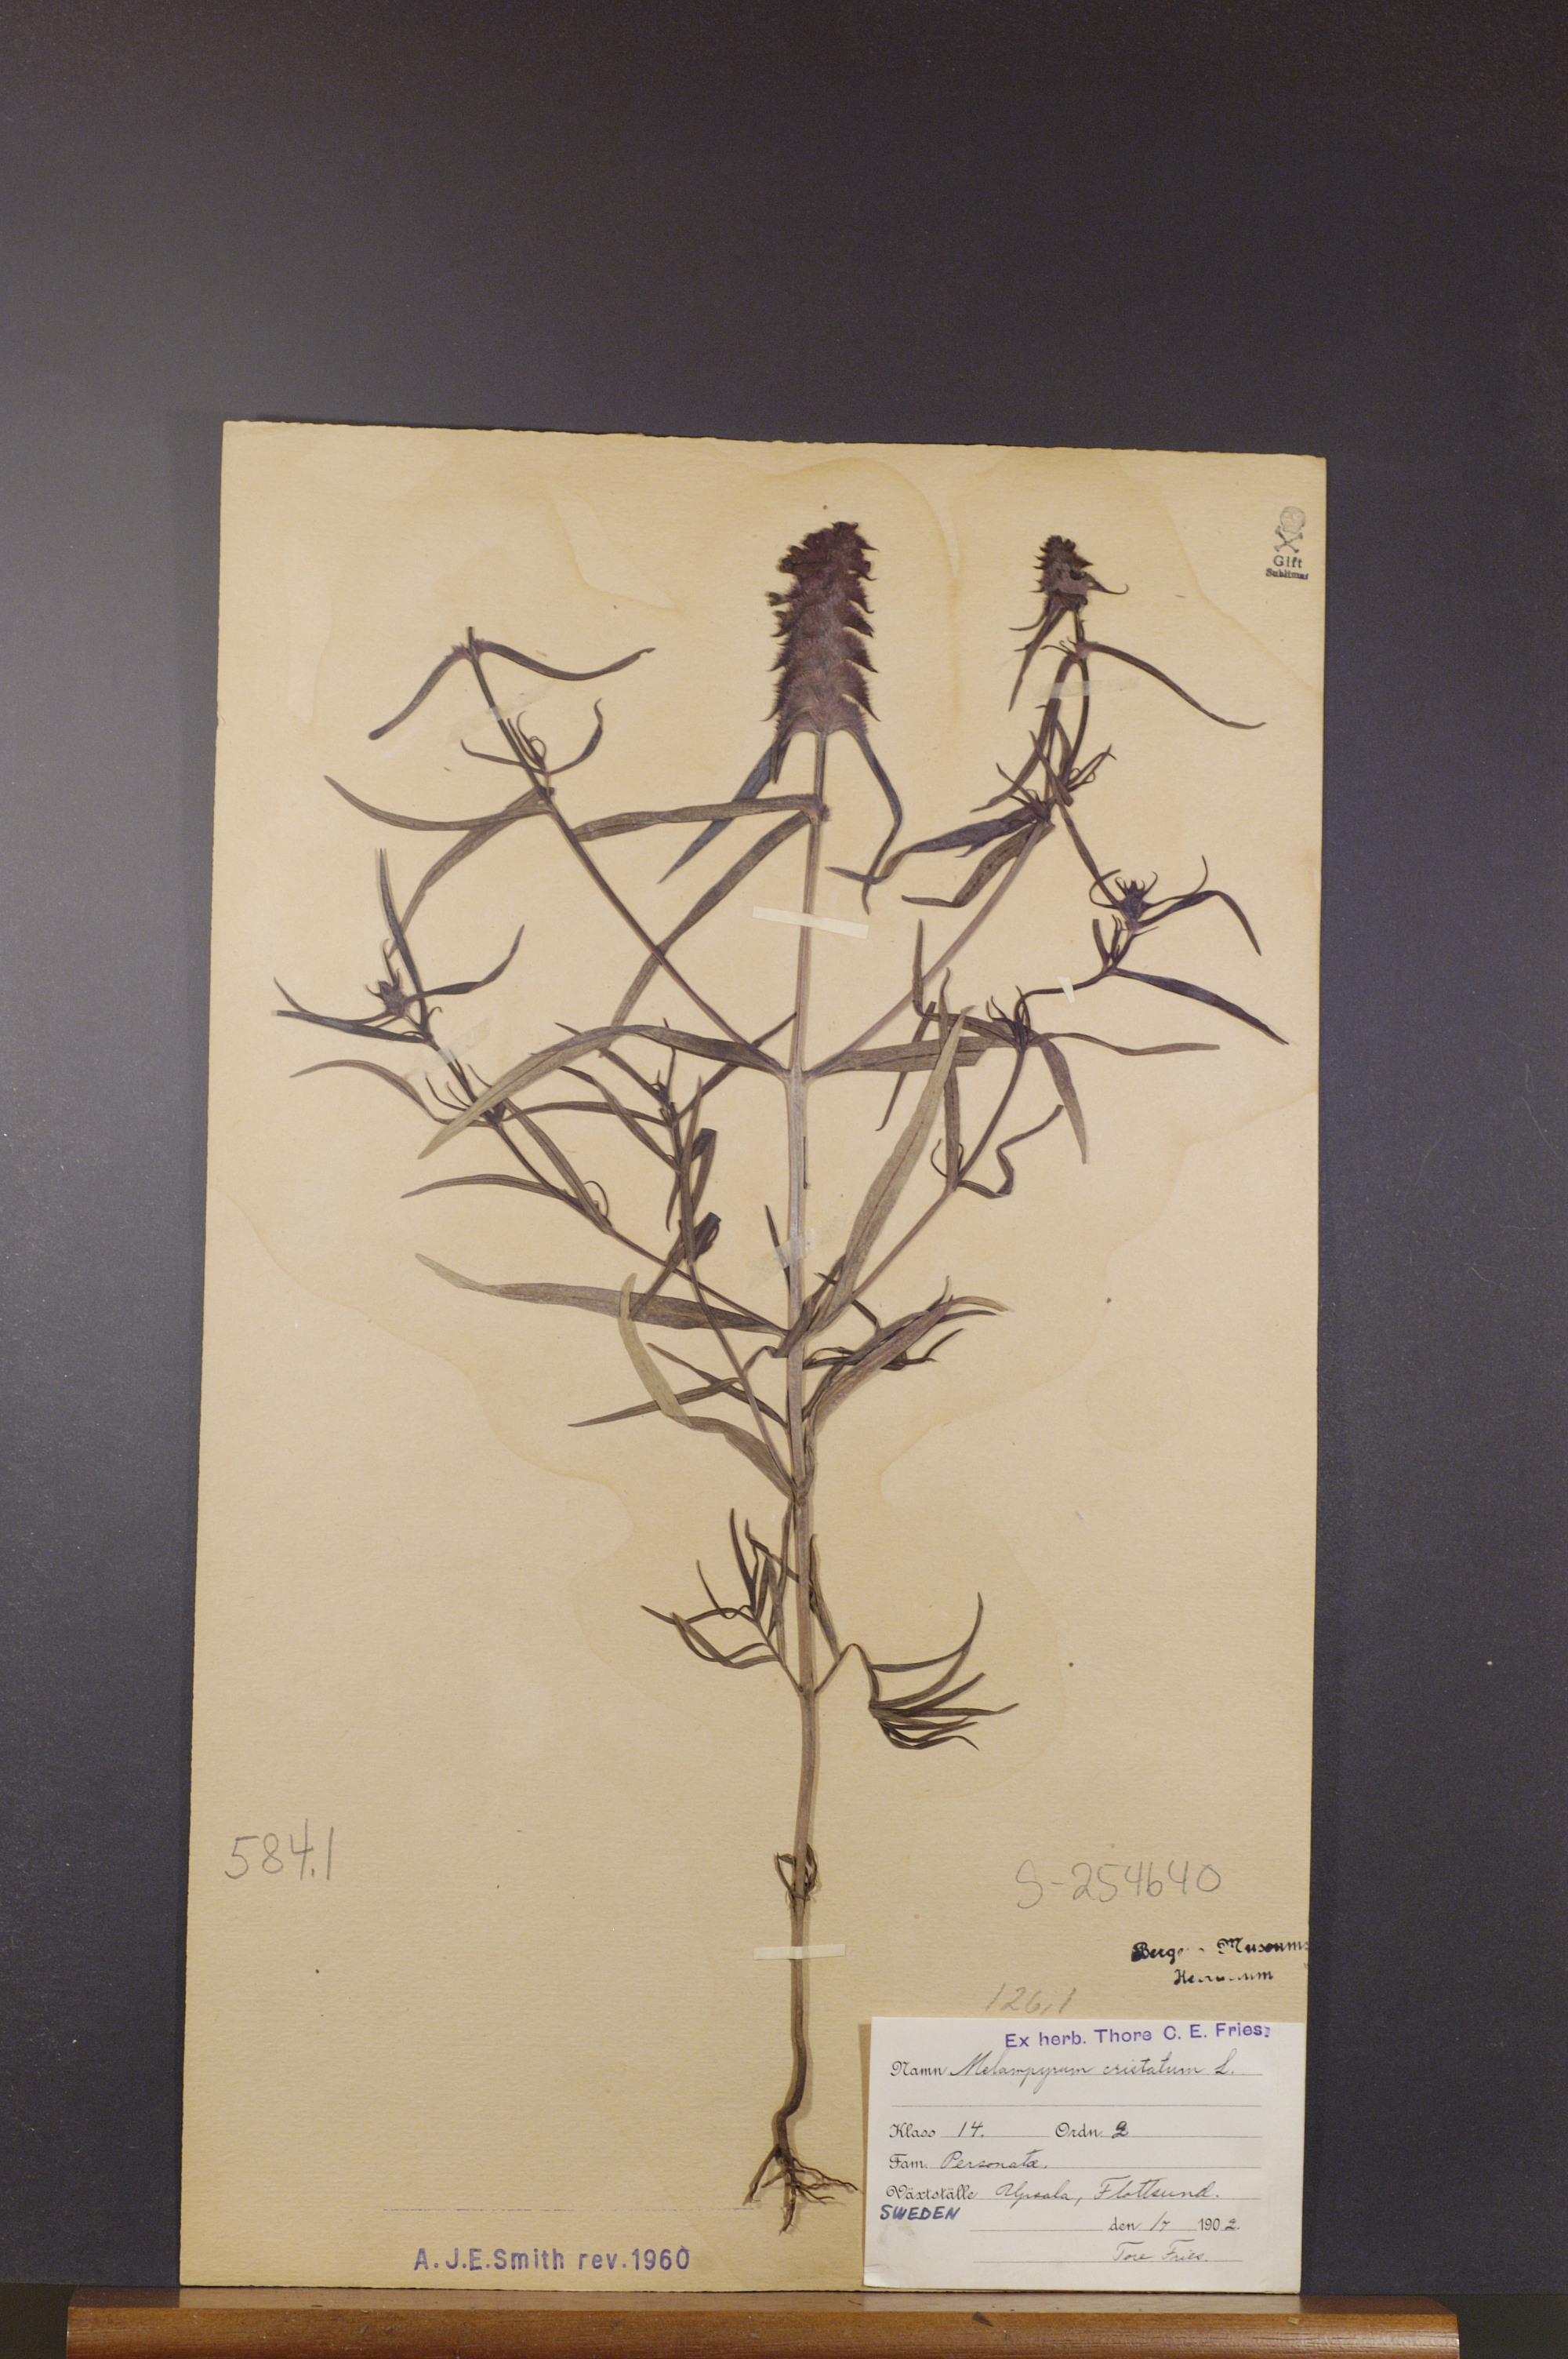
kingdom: Plantae
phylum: Tracheophyta
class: Magnoliopsida
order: Lamiales
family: Orobanchaceae
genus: Melampyrum
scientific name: Melampyrum cristatum
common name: Crested cow-wheat
